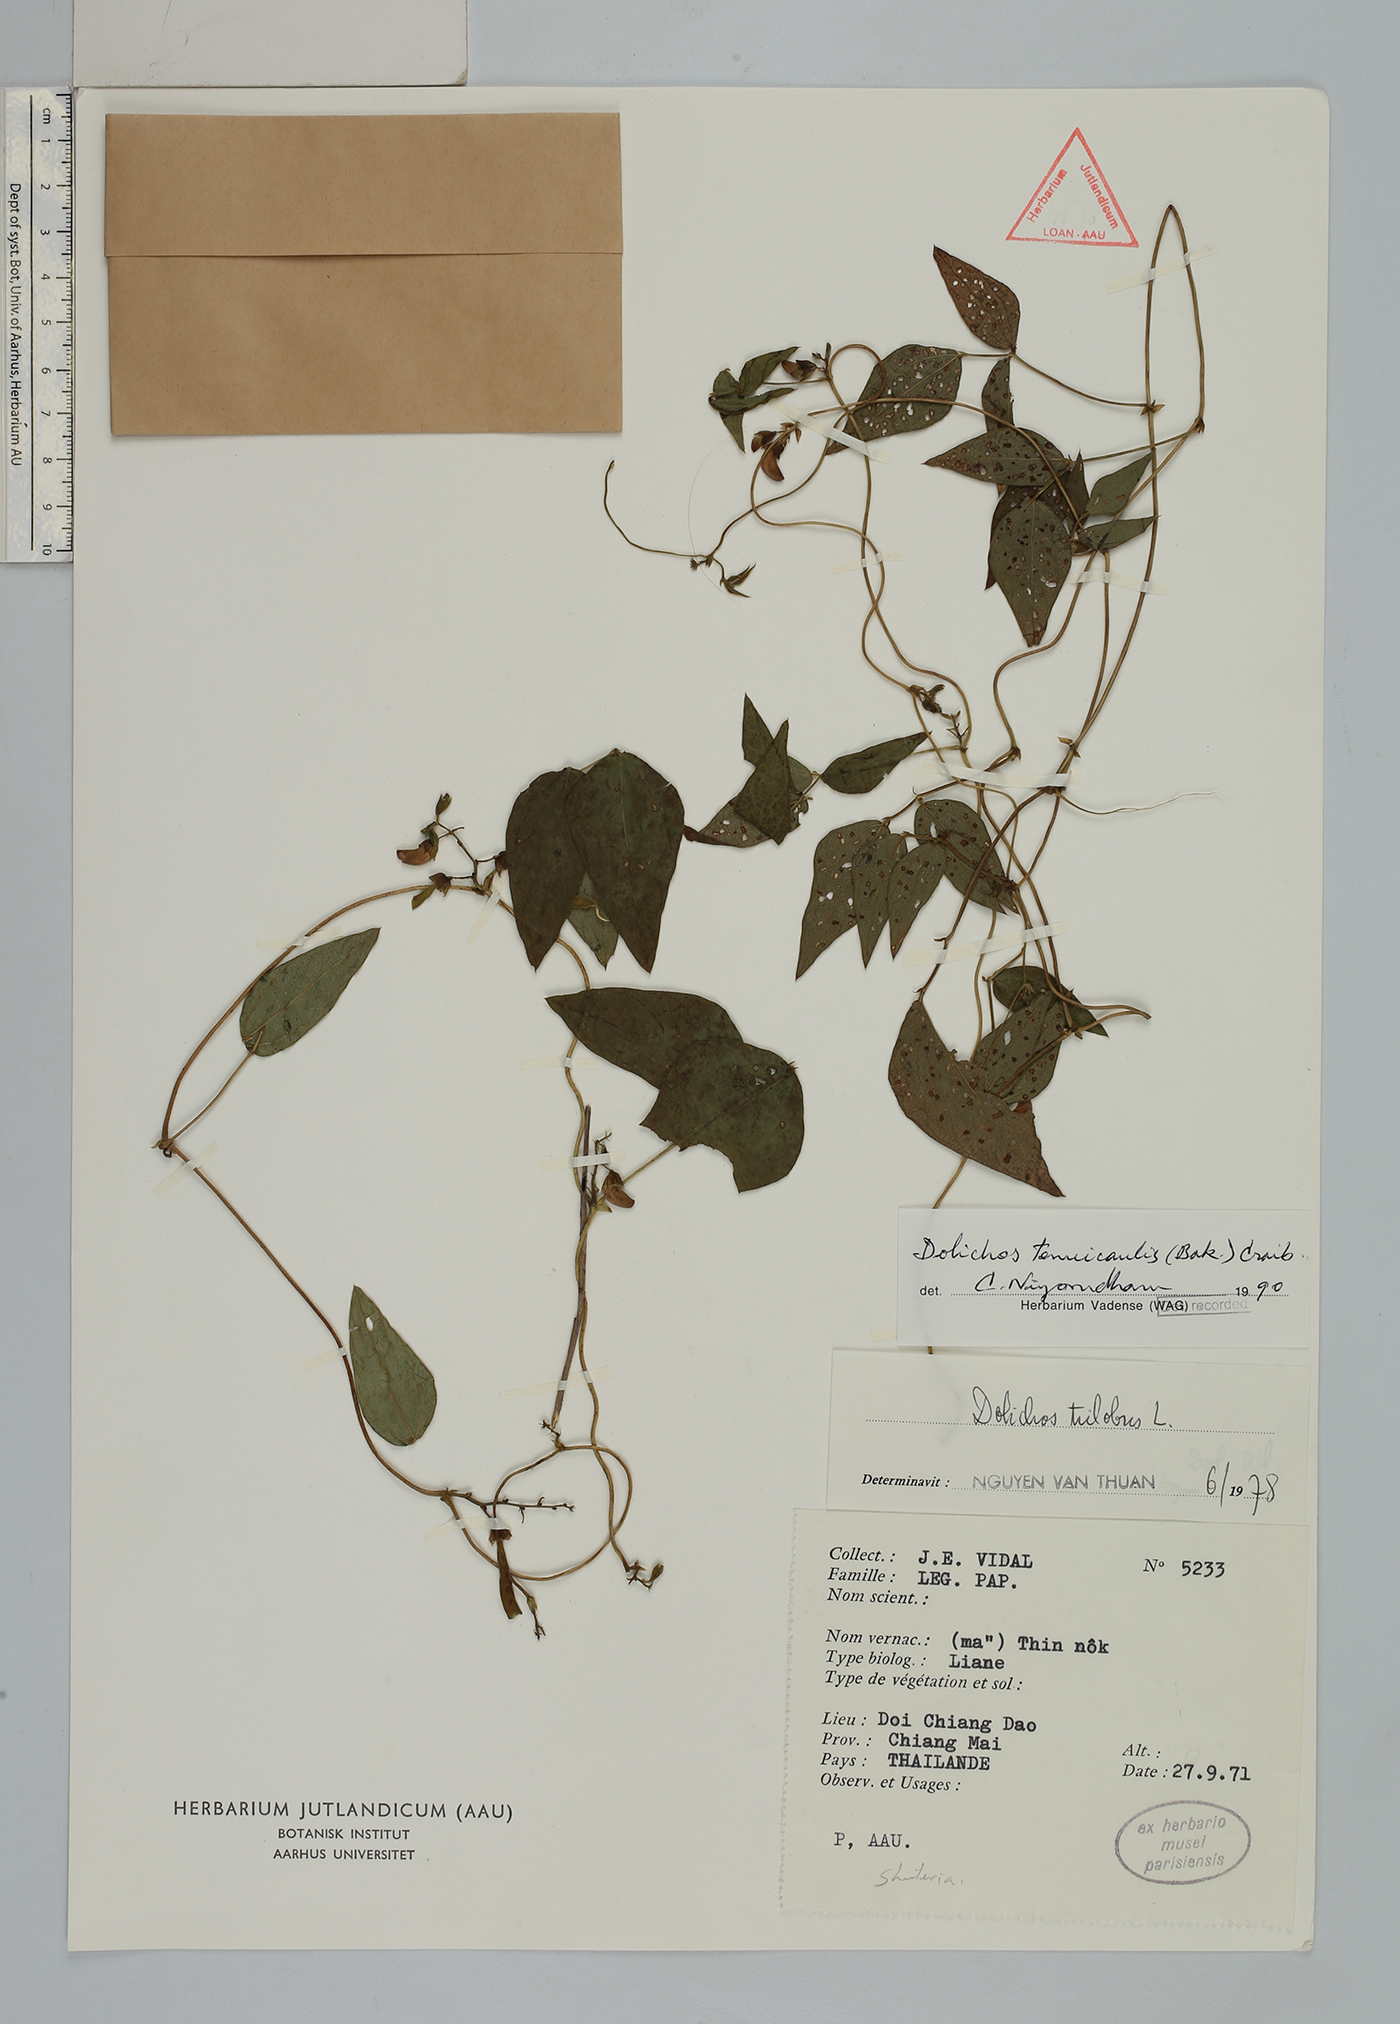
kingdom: Plantae
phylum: Tracheophyta
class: Magnoliopsida
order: Fabales
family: Fabaceae
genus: Dolichos
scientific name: Dolichos tenuicaulis
